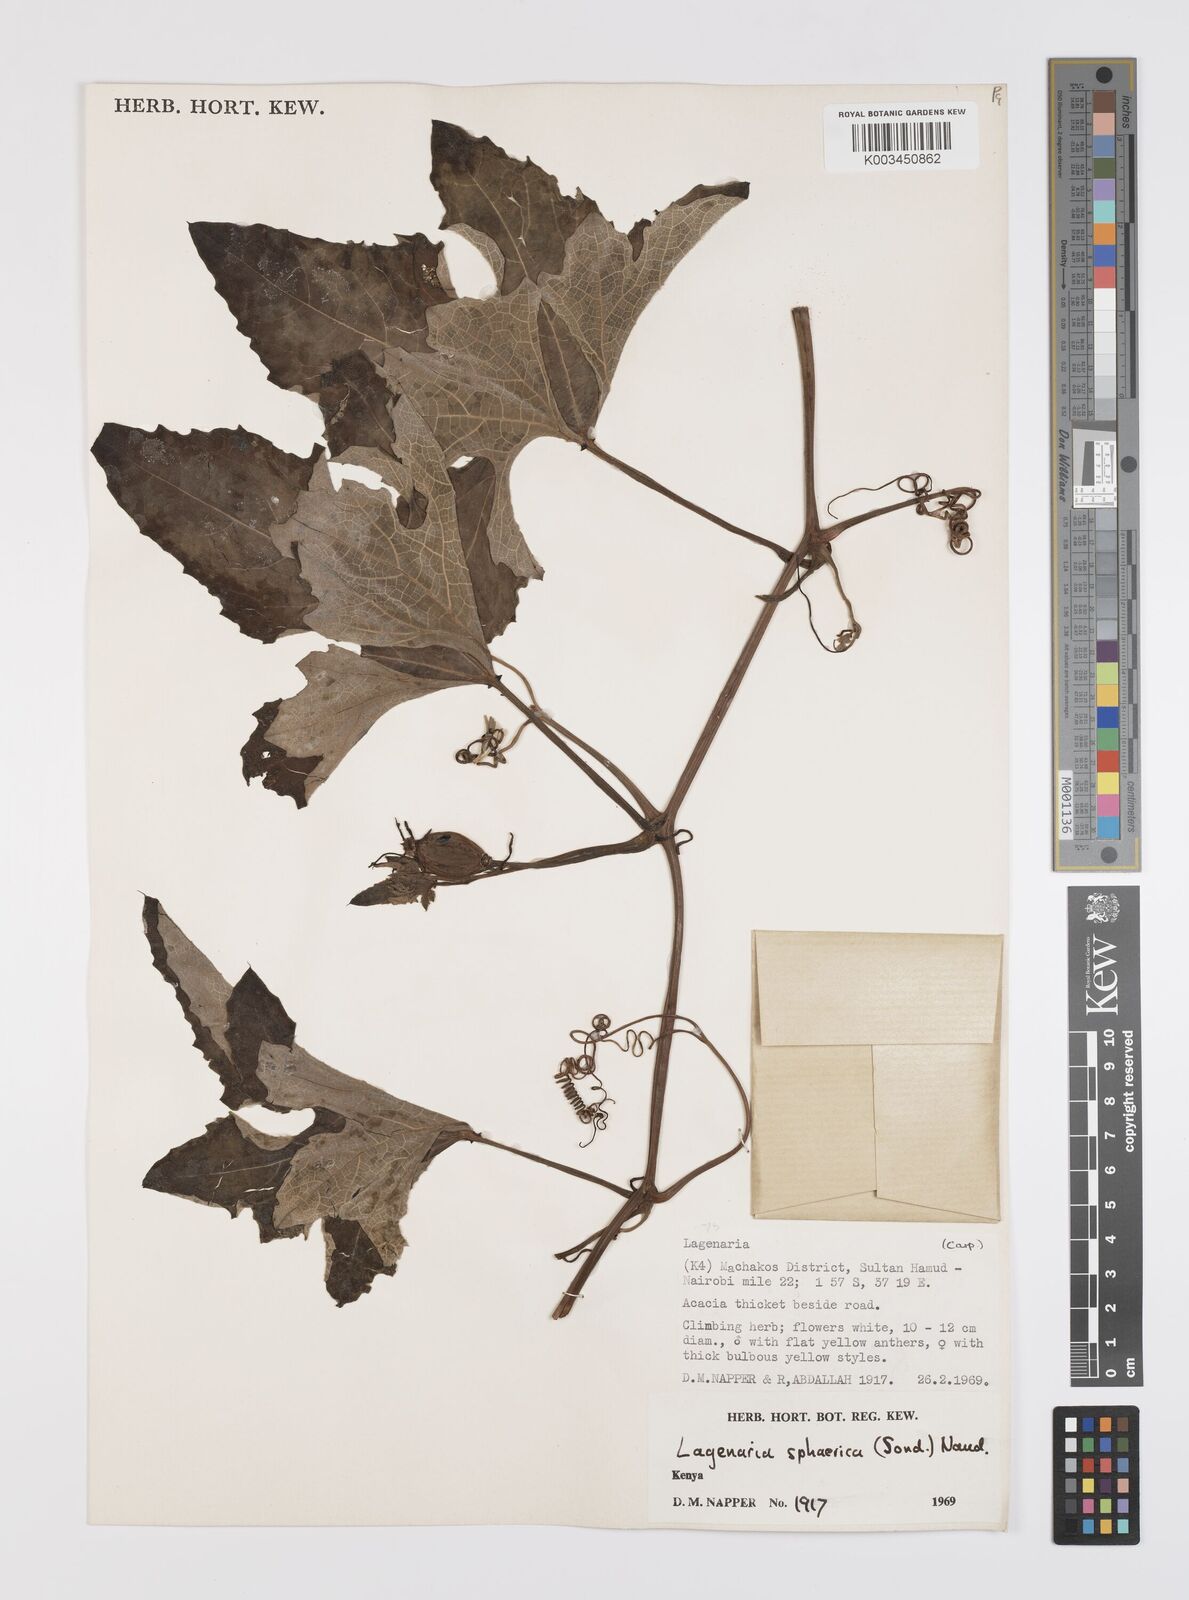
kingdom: Plantae
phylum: Tracheophyta
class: Magnoliopsida
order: Cucurbitales
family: Cucurbitaceae
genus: Lagenaria
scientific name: Lagenaria sphaerica
